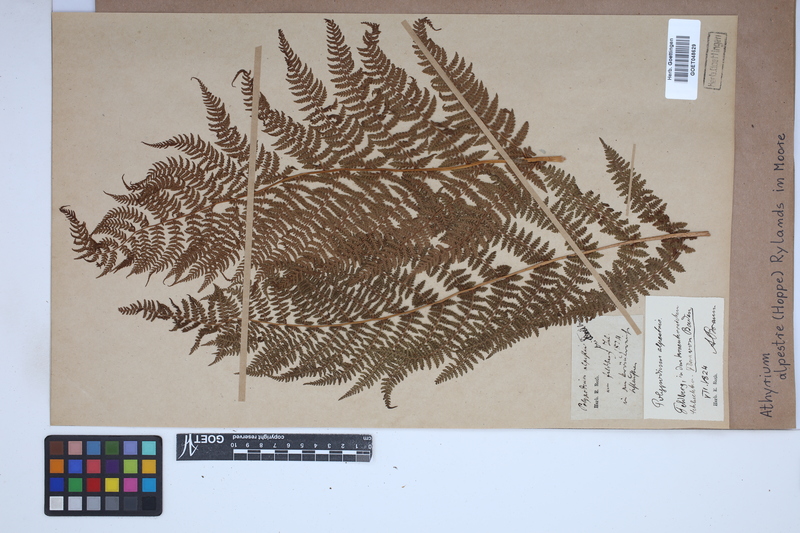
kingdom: Plantae
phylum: Tracheophyta
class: Polypodiopsida
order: Polypodiales
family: Athyriaceae
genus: Pseudathyrium
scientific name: Pseudathyrium alpestre
